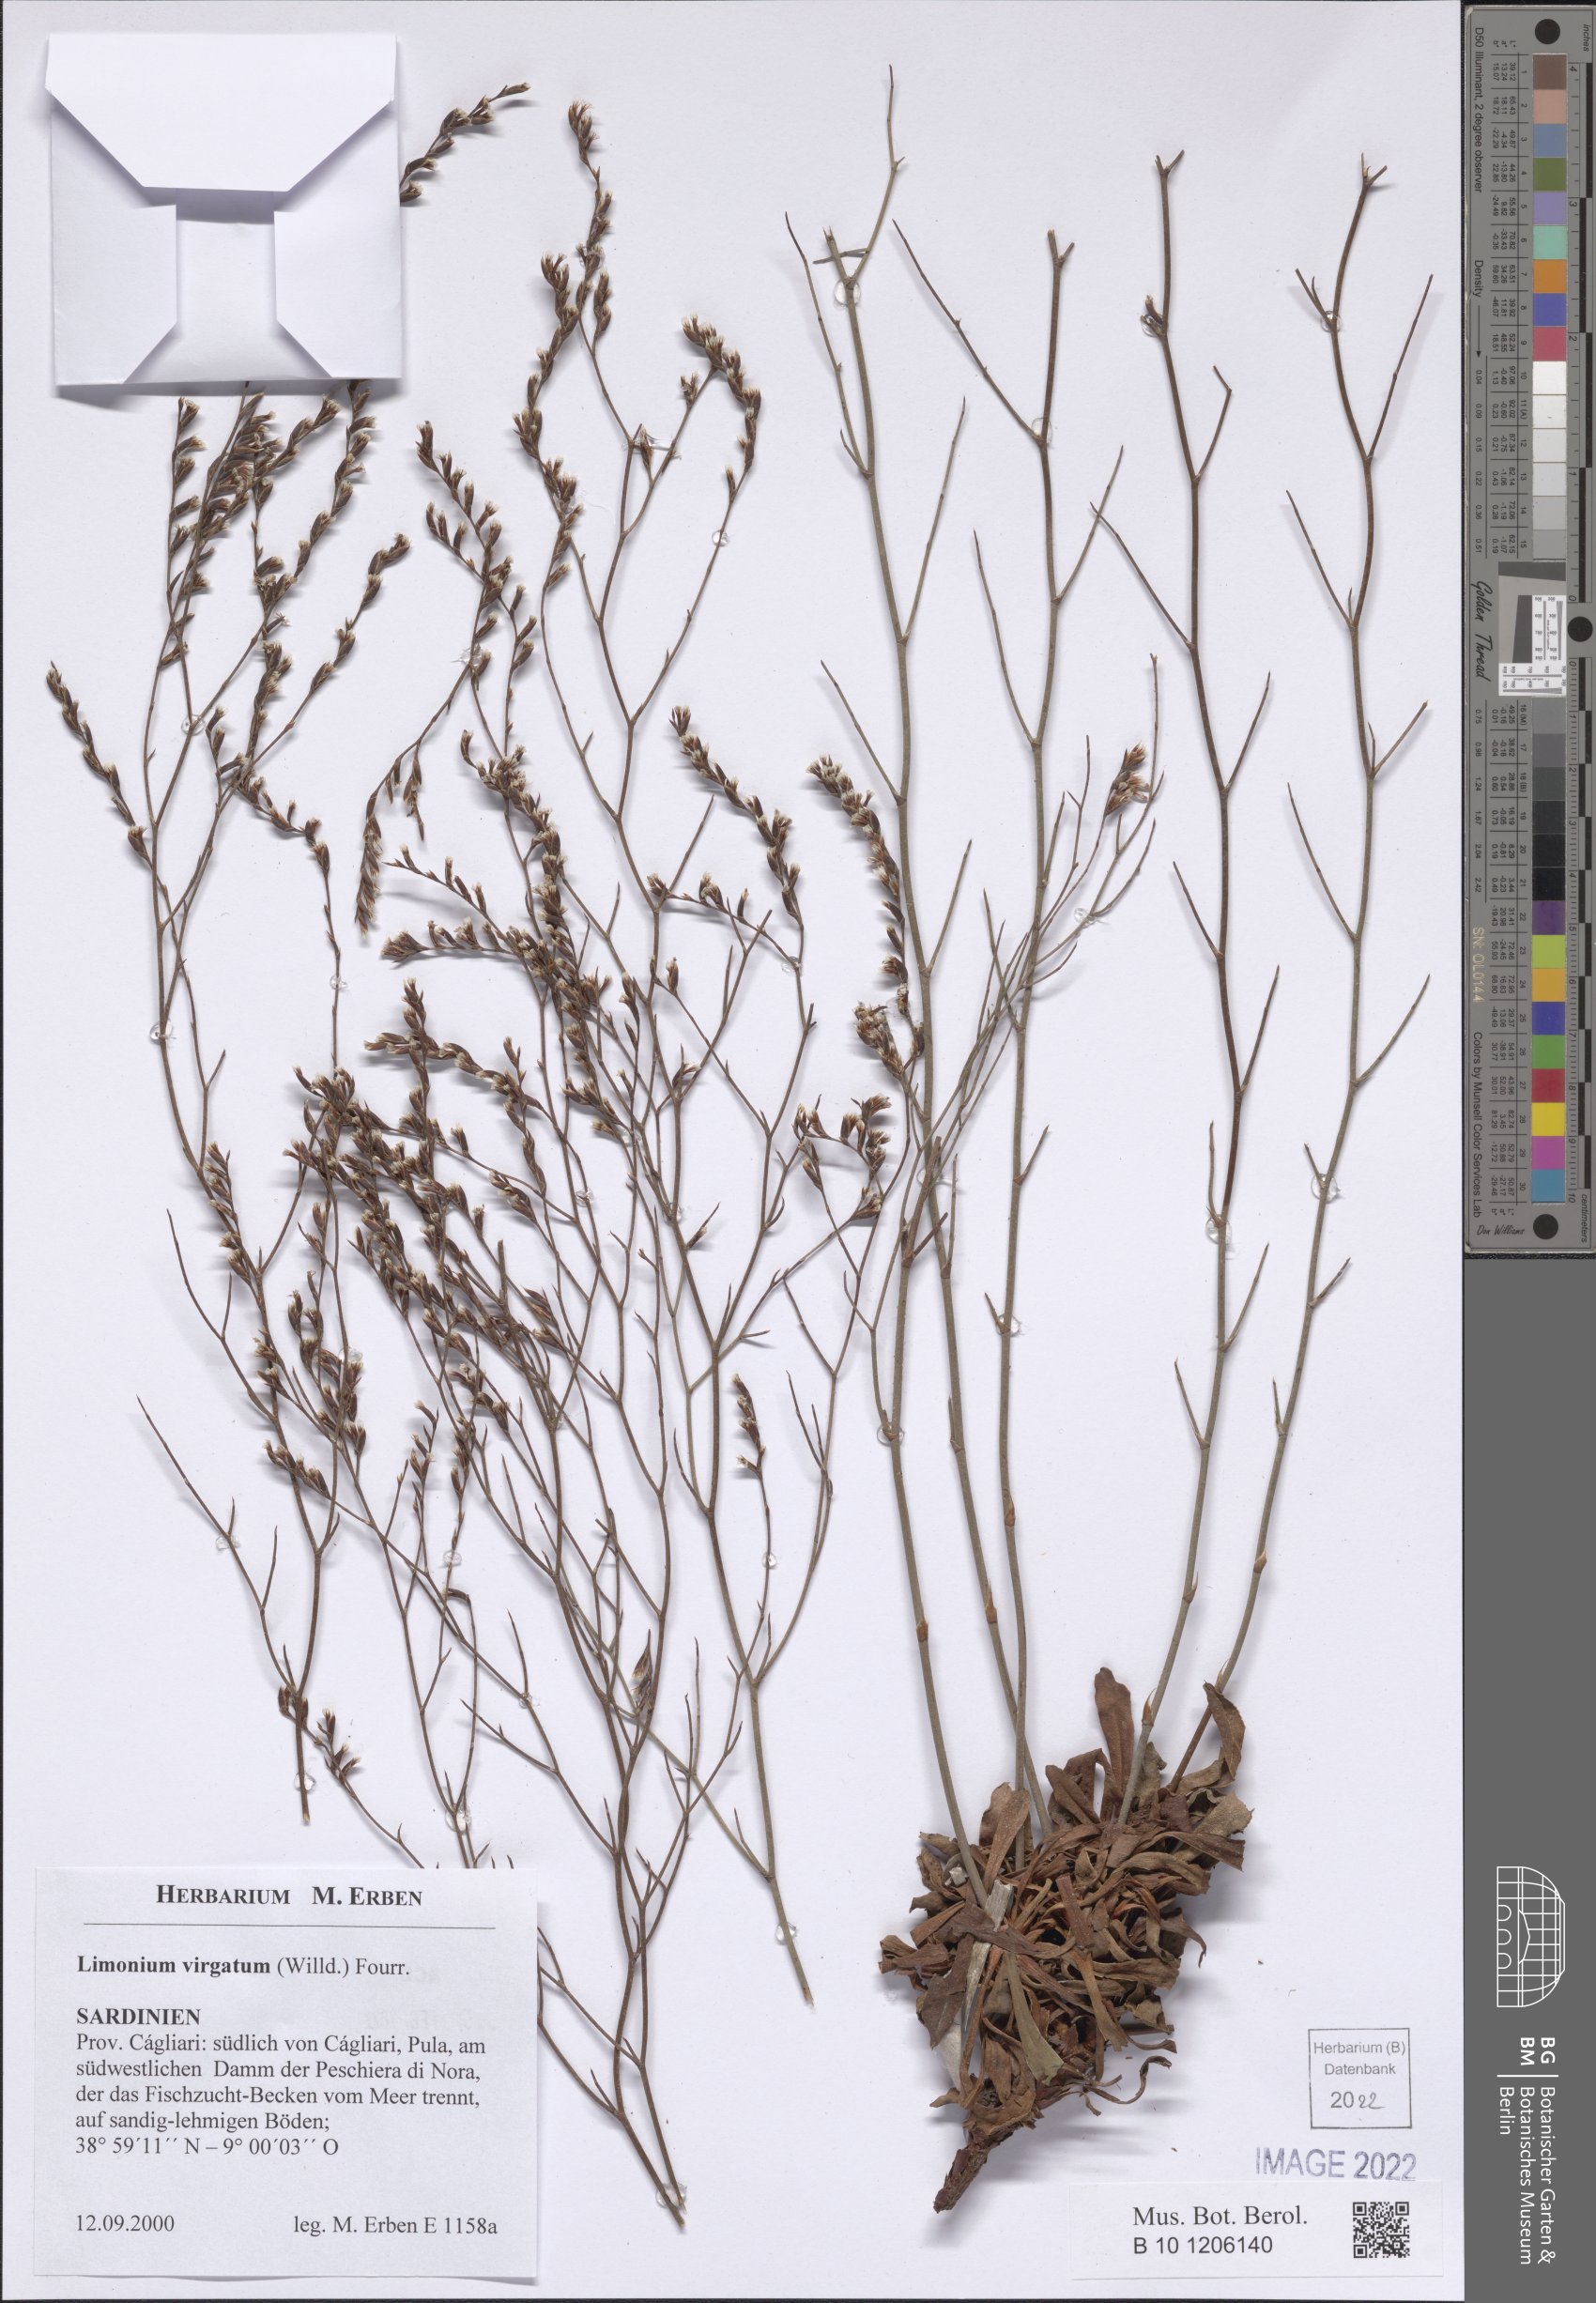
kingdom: Plantae
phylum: Tracheophyta
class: Magnoliopsida
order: Caryophyllales
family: Plumbaginaceae
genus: Limonium
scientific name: Limonium virgatum
